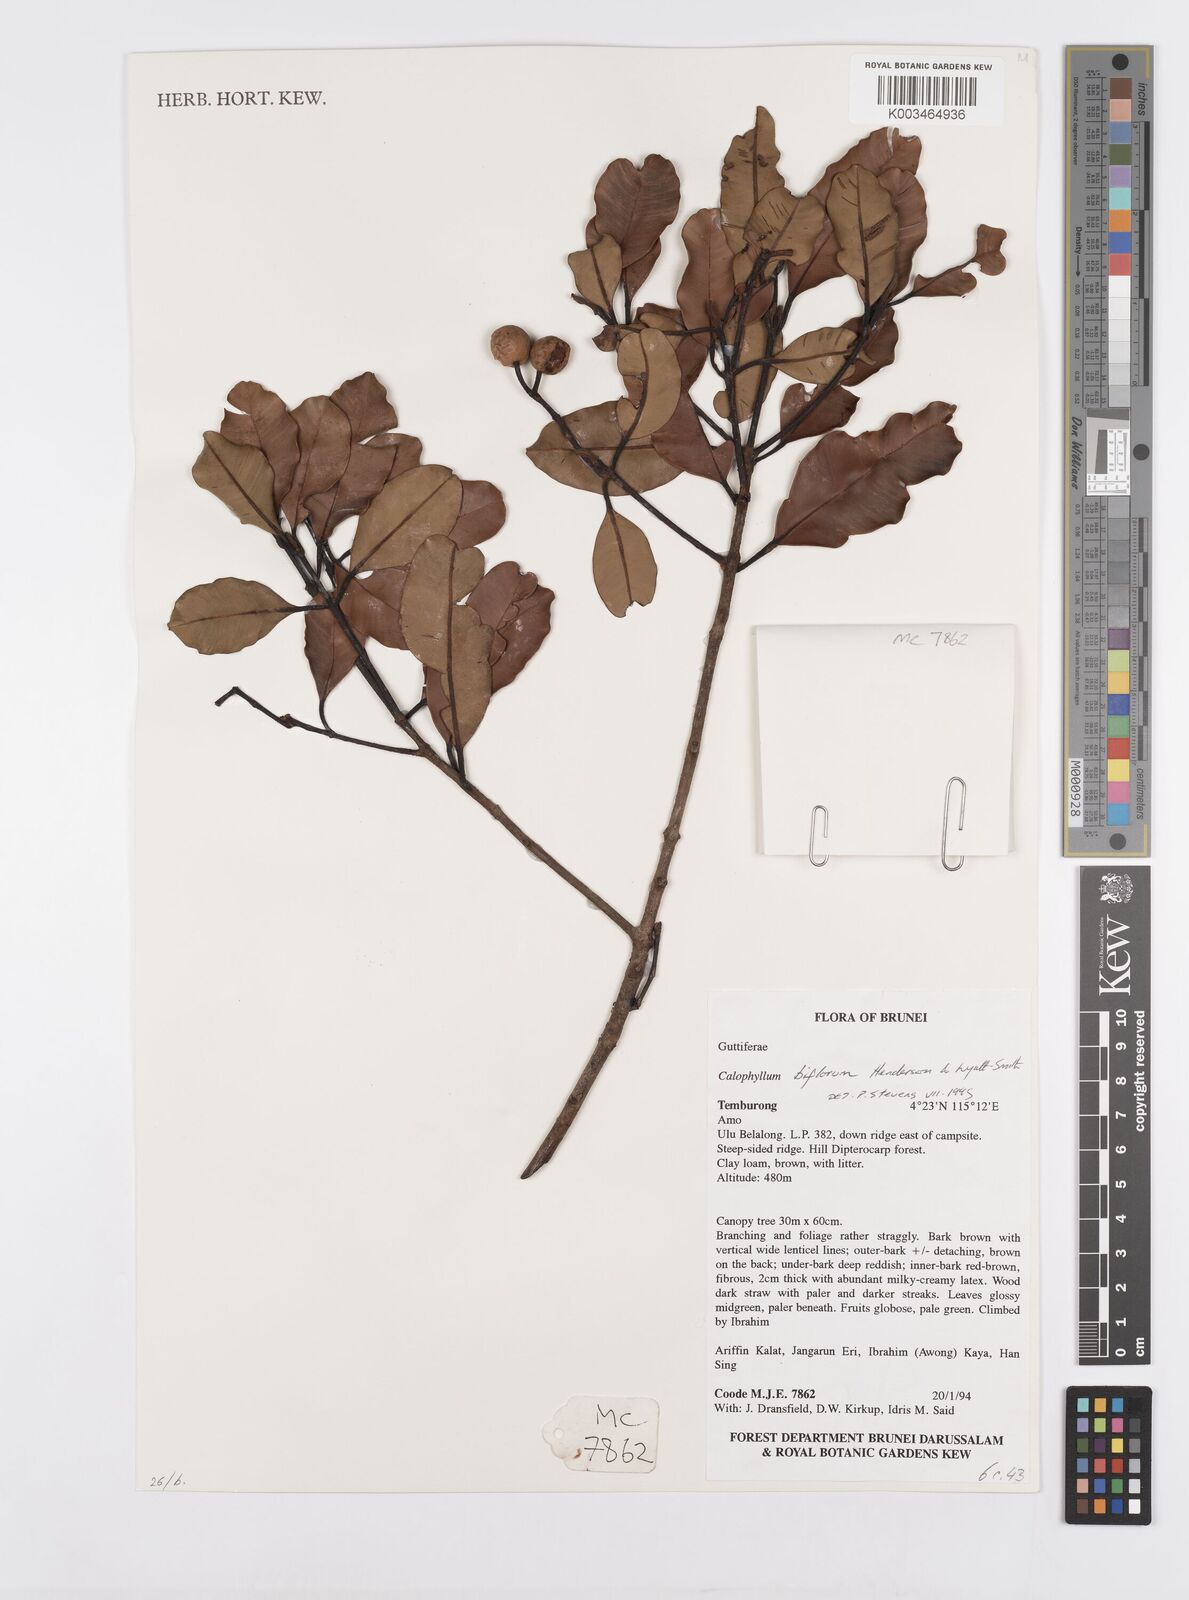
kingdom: Plantae
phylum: Tracheophyta
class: Magnoliopsida
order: Malpighiales
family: Calophyllaceae
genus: Calophyllum
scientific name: Calophyllum biflorum
